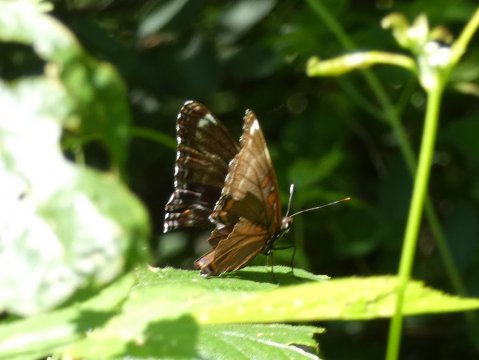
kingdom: Animalia
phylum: Arthropoda
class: Insecta
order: Lepidoptera
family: Nymphalidae
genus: Limenitis
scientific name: Limenitis arthemis
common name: Red-spotted Admiral
